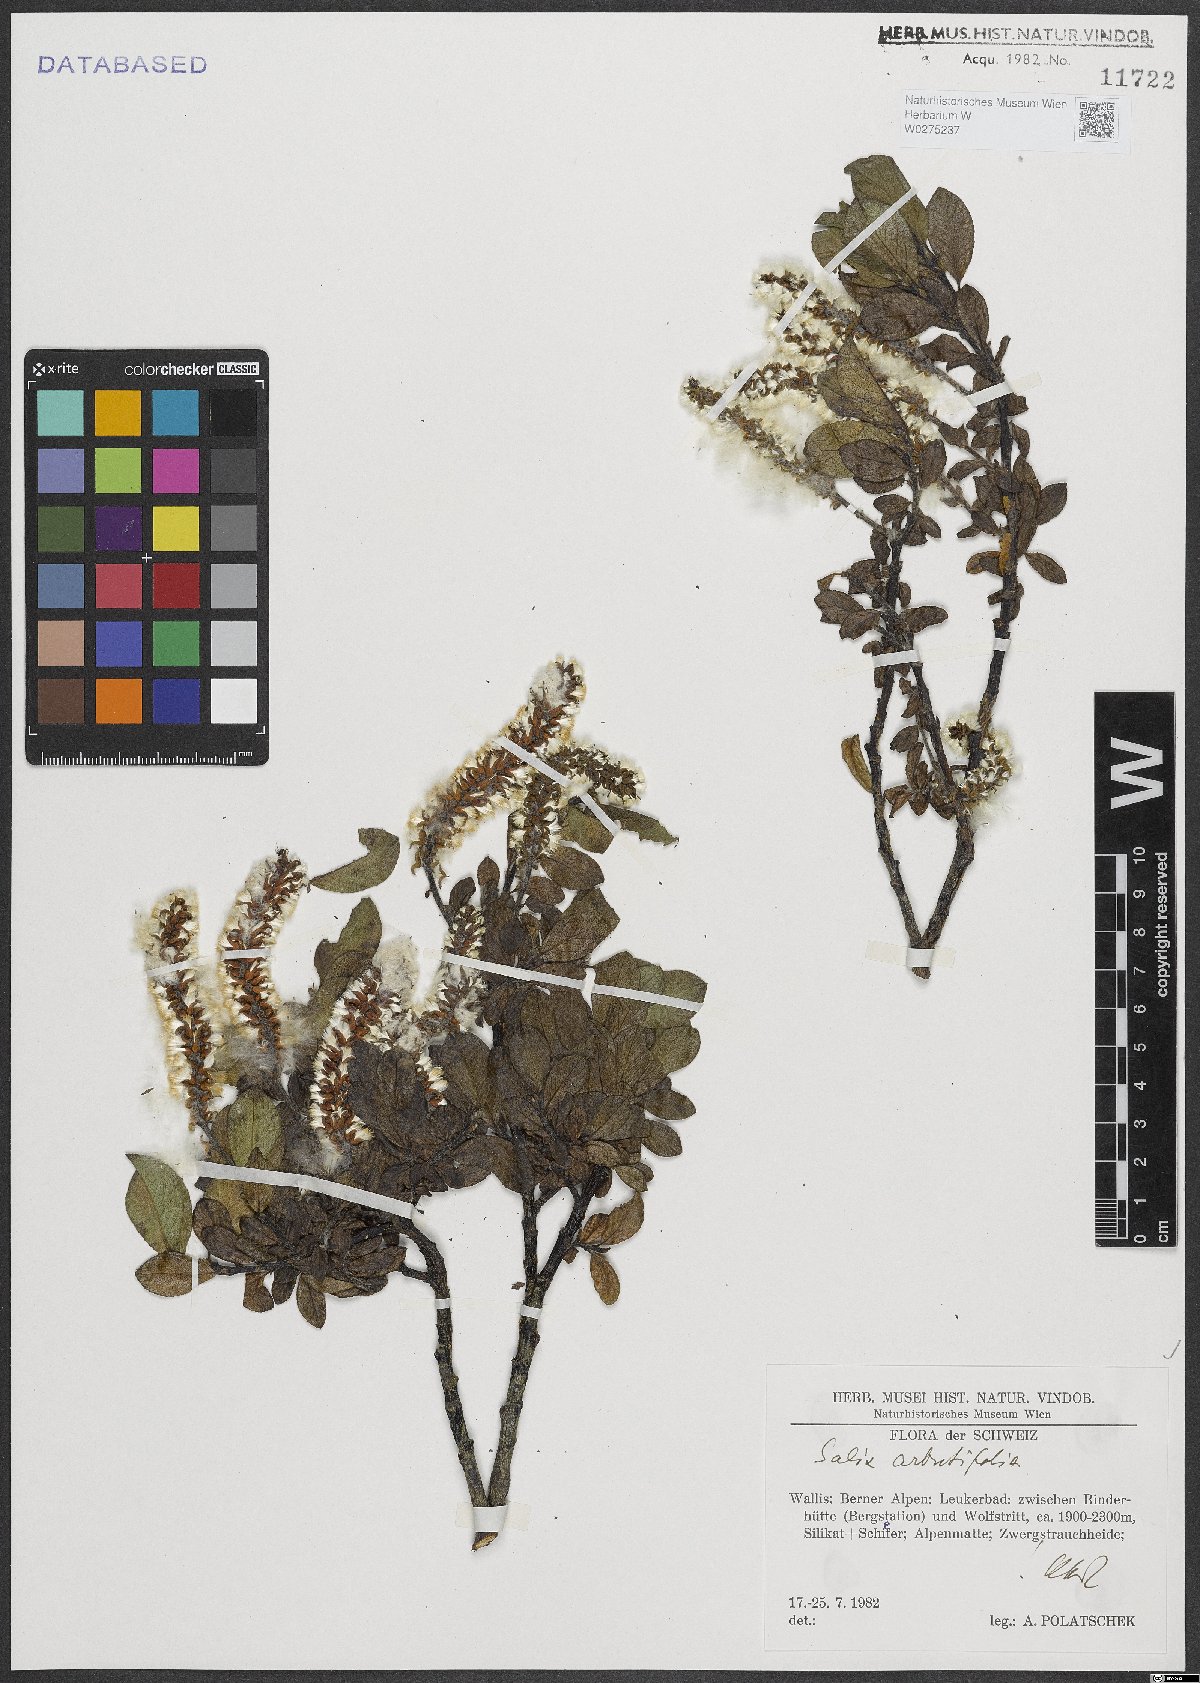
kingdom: Plantae
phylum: Tracheophyta
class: Magnoliopsida
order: Malpighiales
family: Salicaceae
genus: Chosenia
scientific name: Chosenia arbutifolia
